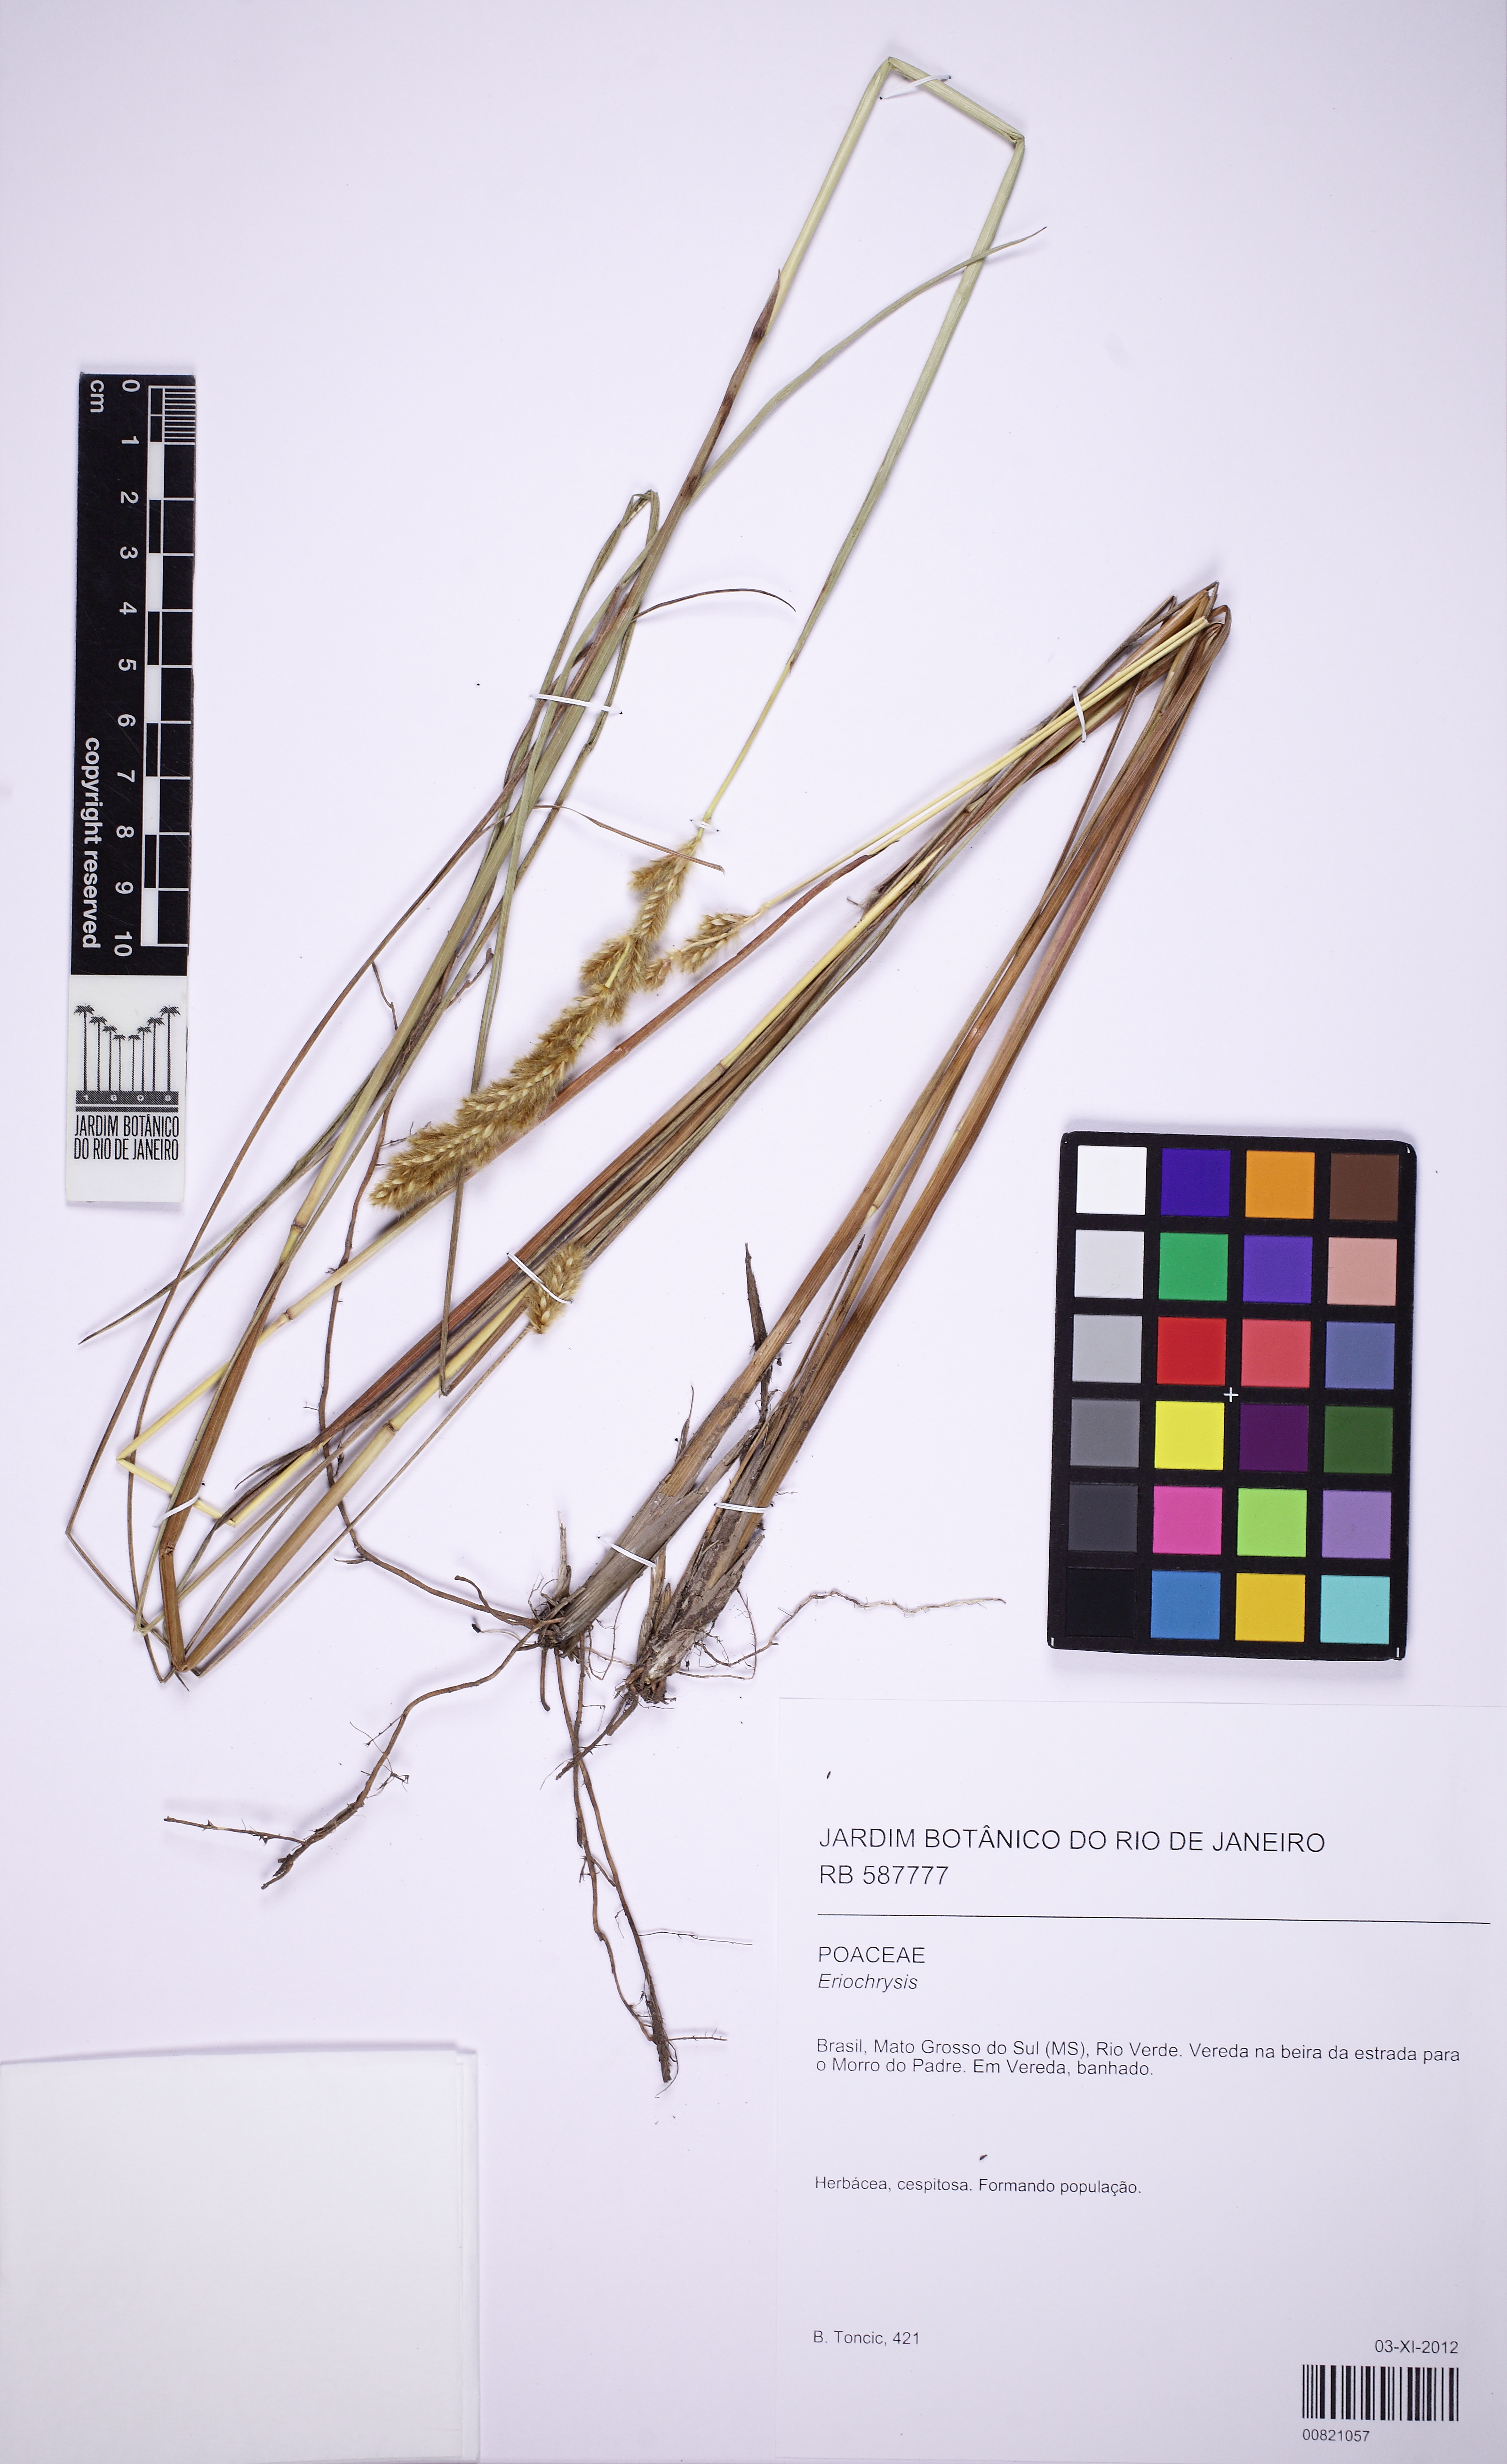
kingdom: Plantae
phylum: Tracheophyta
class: Liliopsida
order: Poales
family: Poaceae
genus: Eriochrysis
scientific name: Eriochrysis
